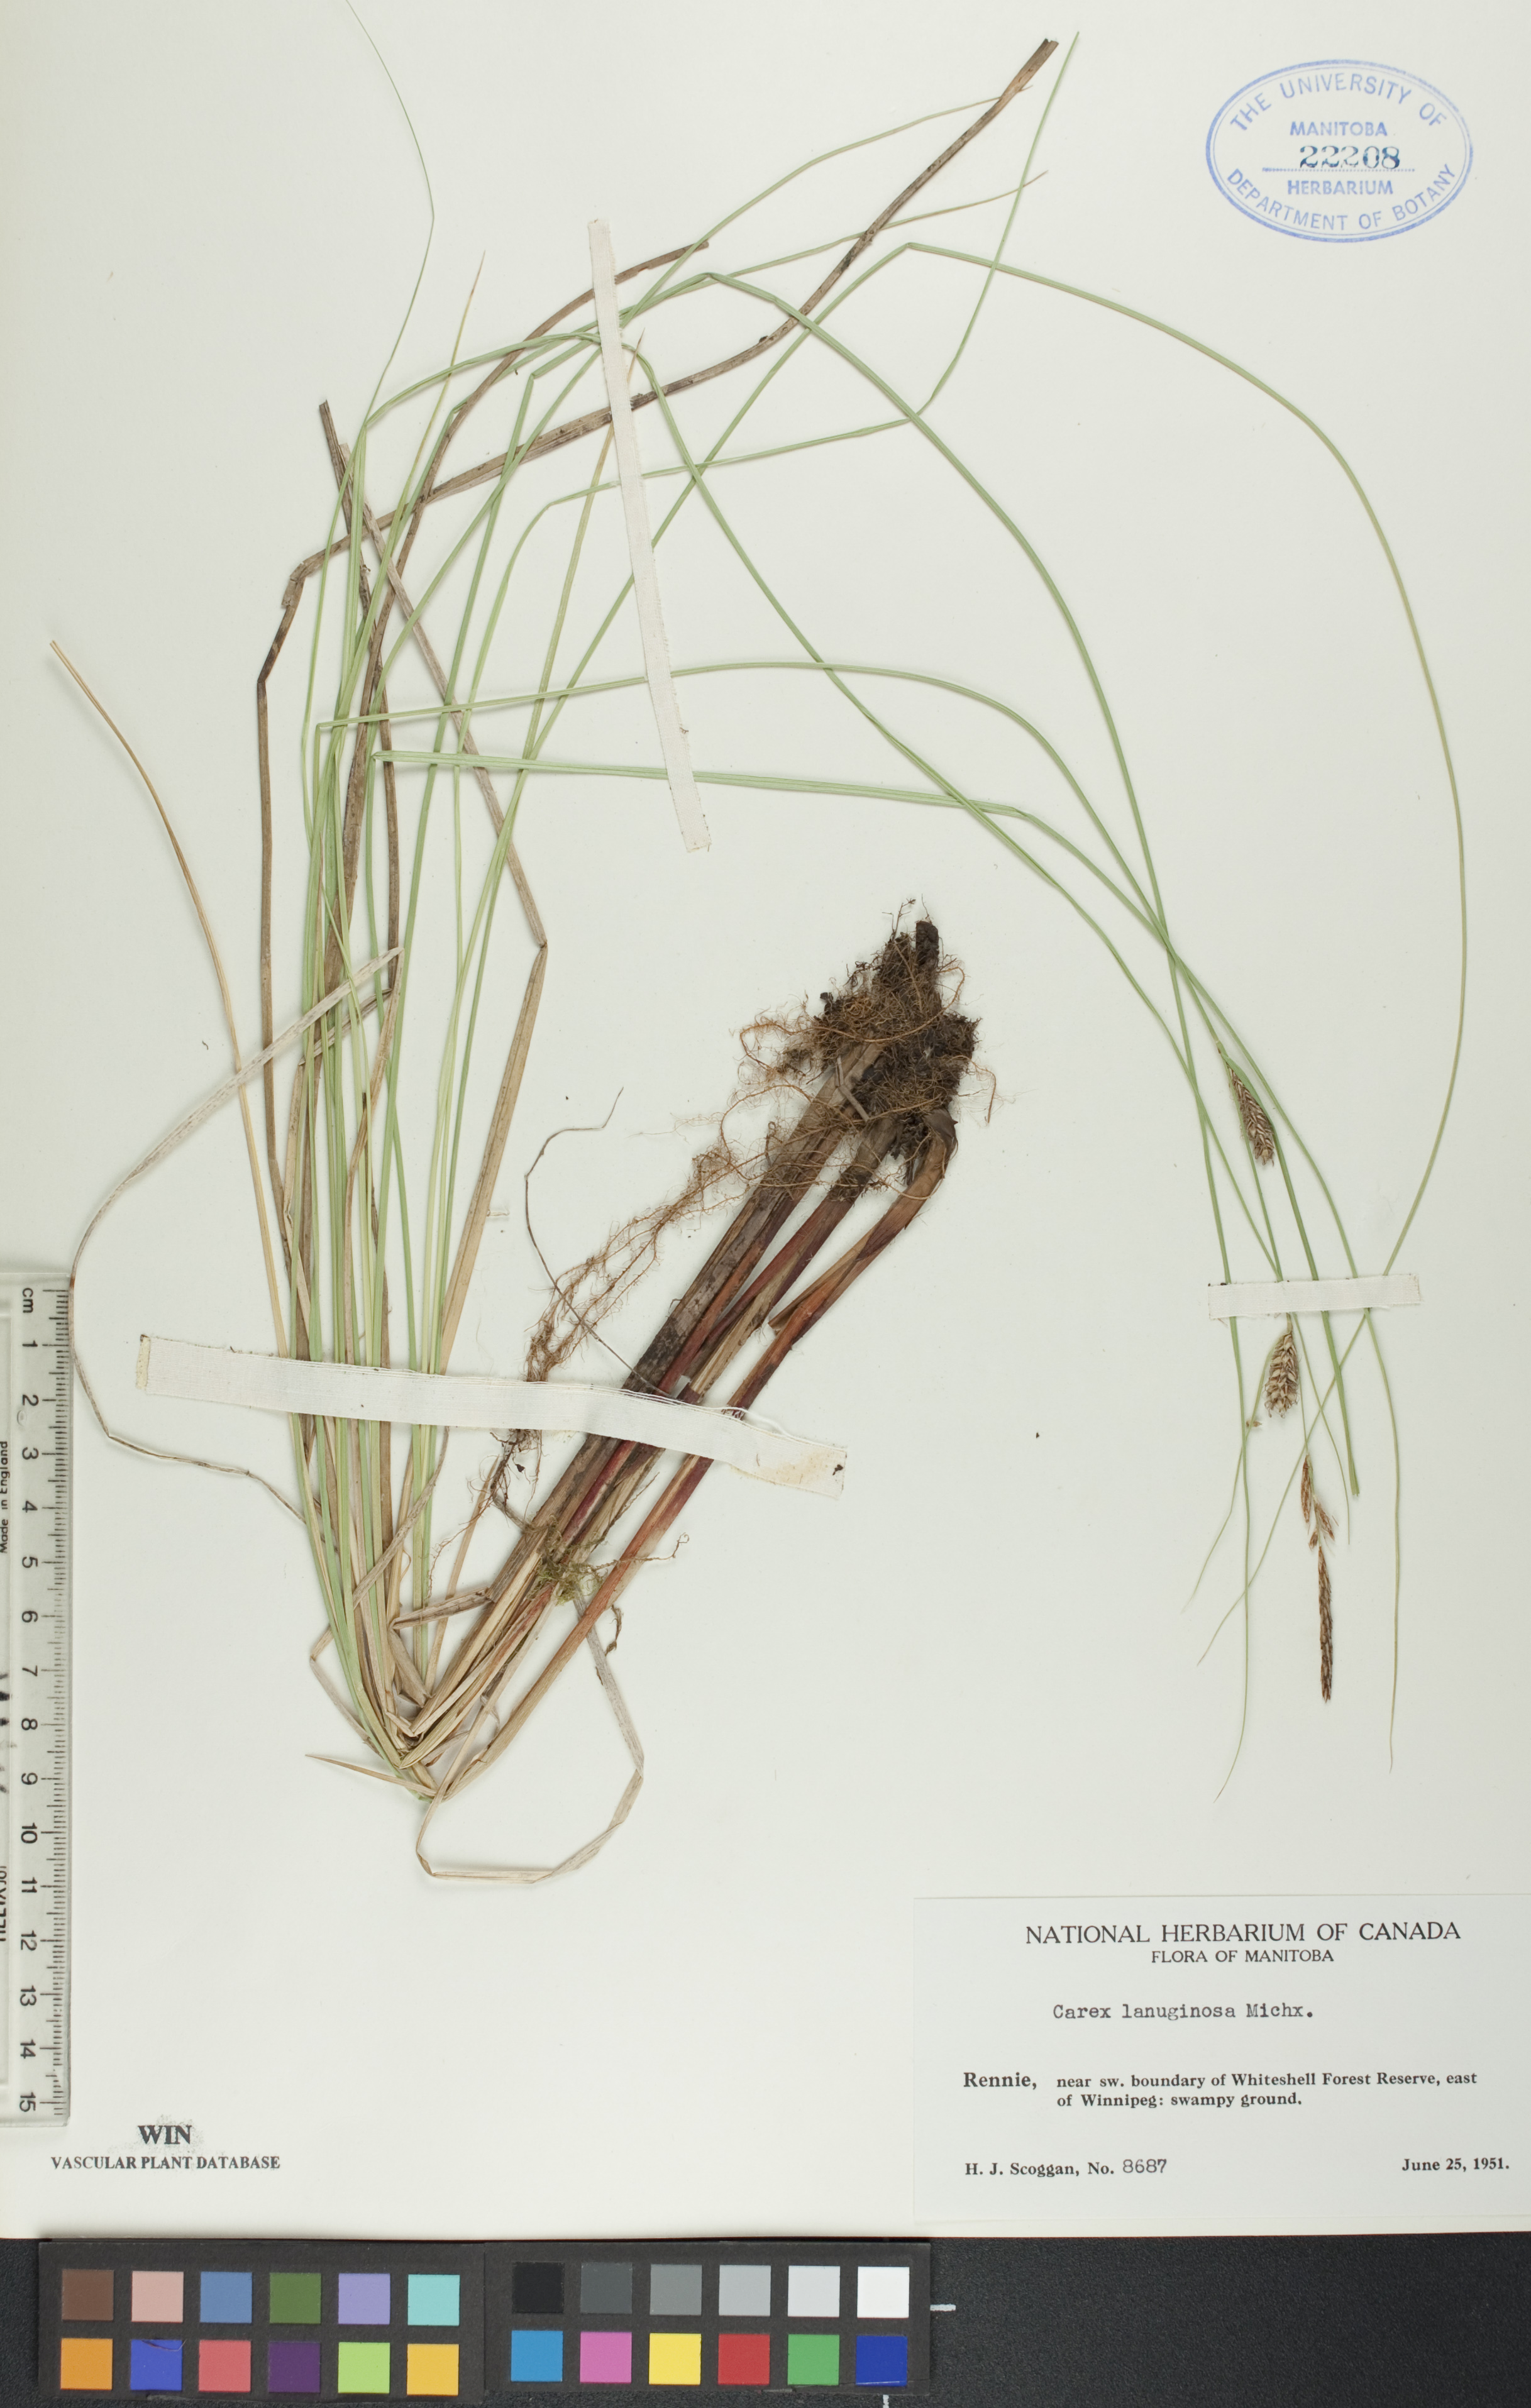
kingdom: Plantae
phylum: Tracheophyta
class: Liliopsida
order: Poales
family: Cyperaceae
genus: Carex
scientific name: Carex lasiocarpa
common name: Slender sedge
